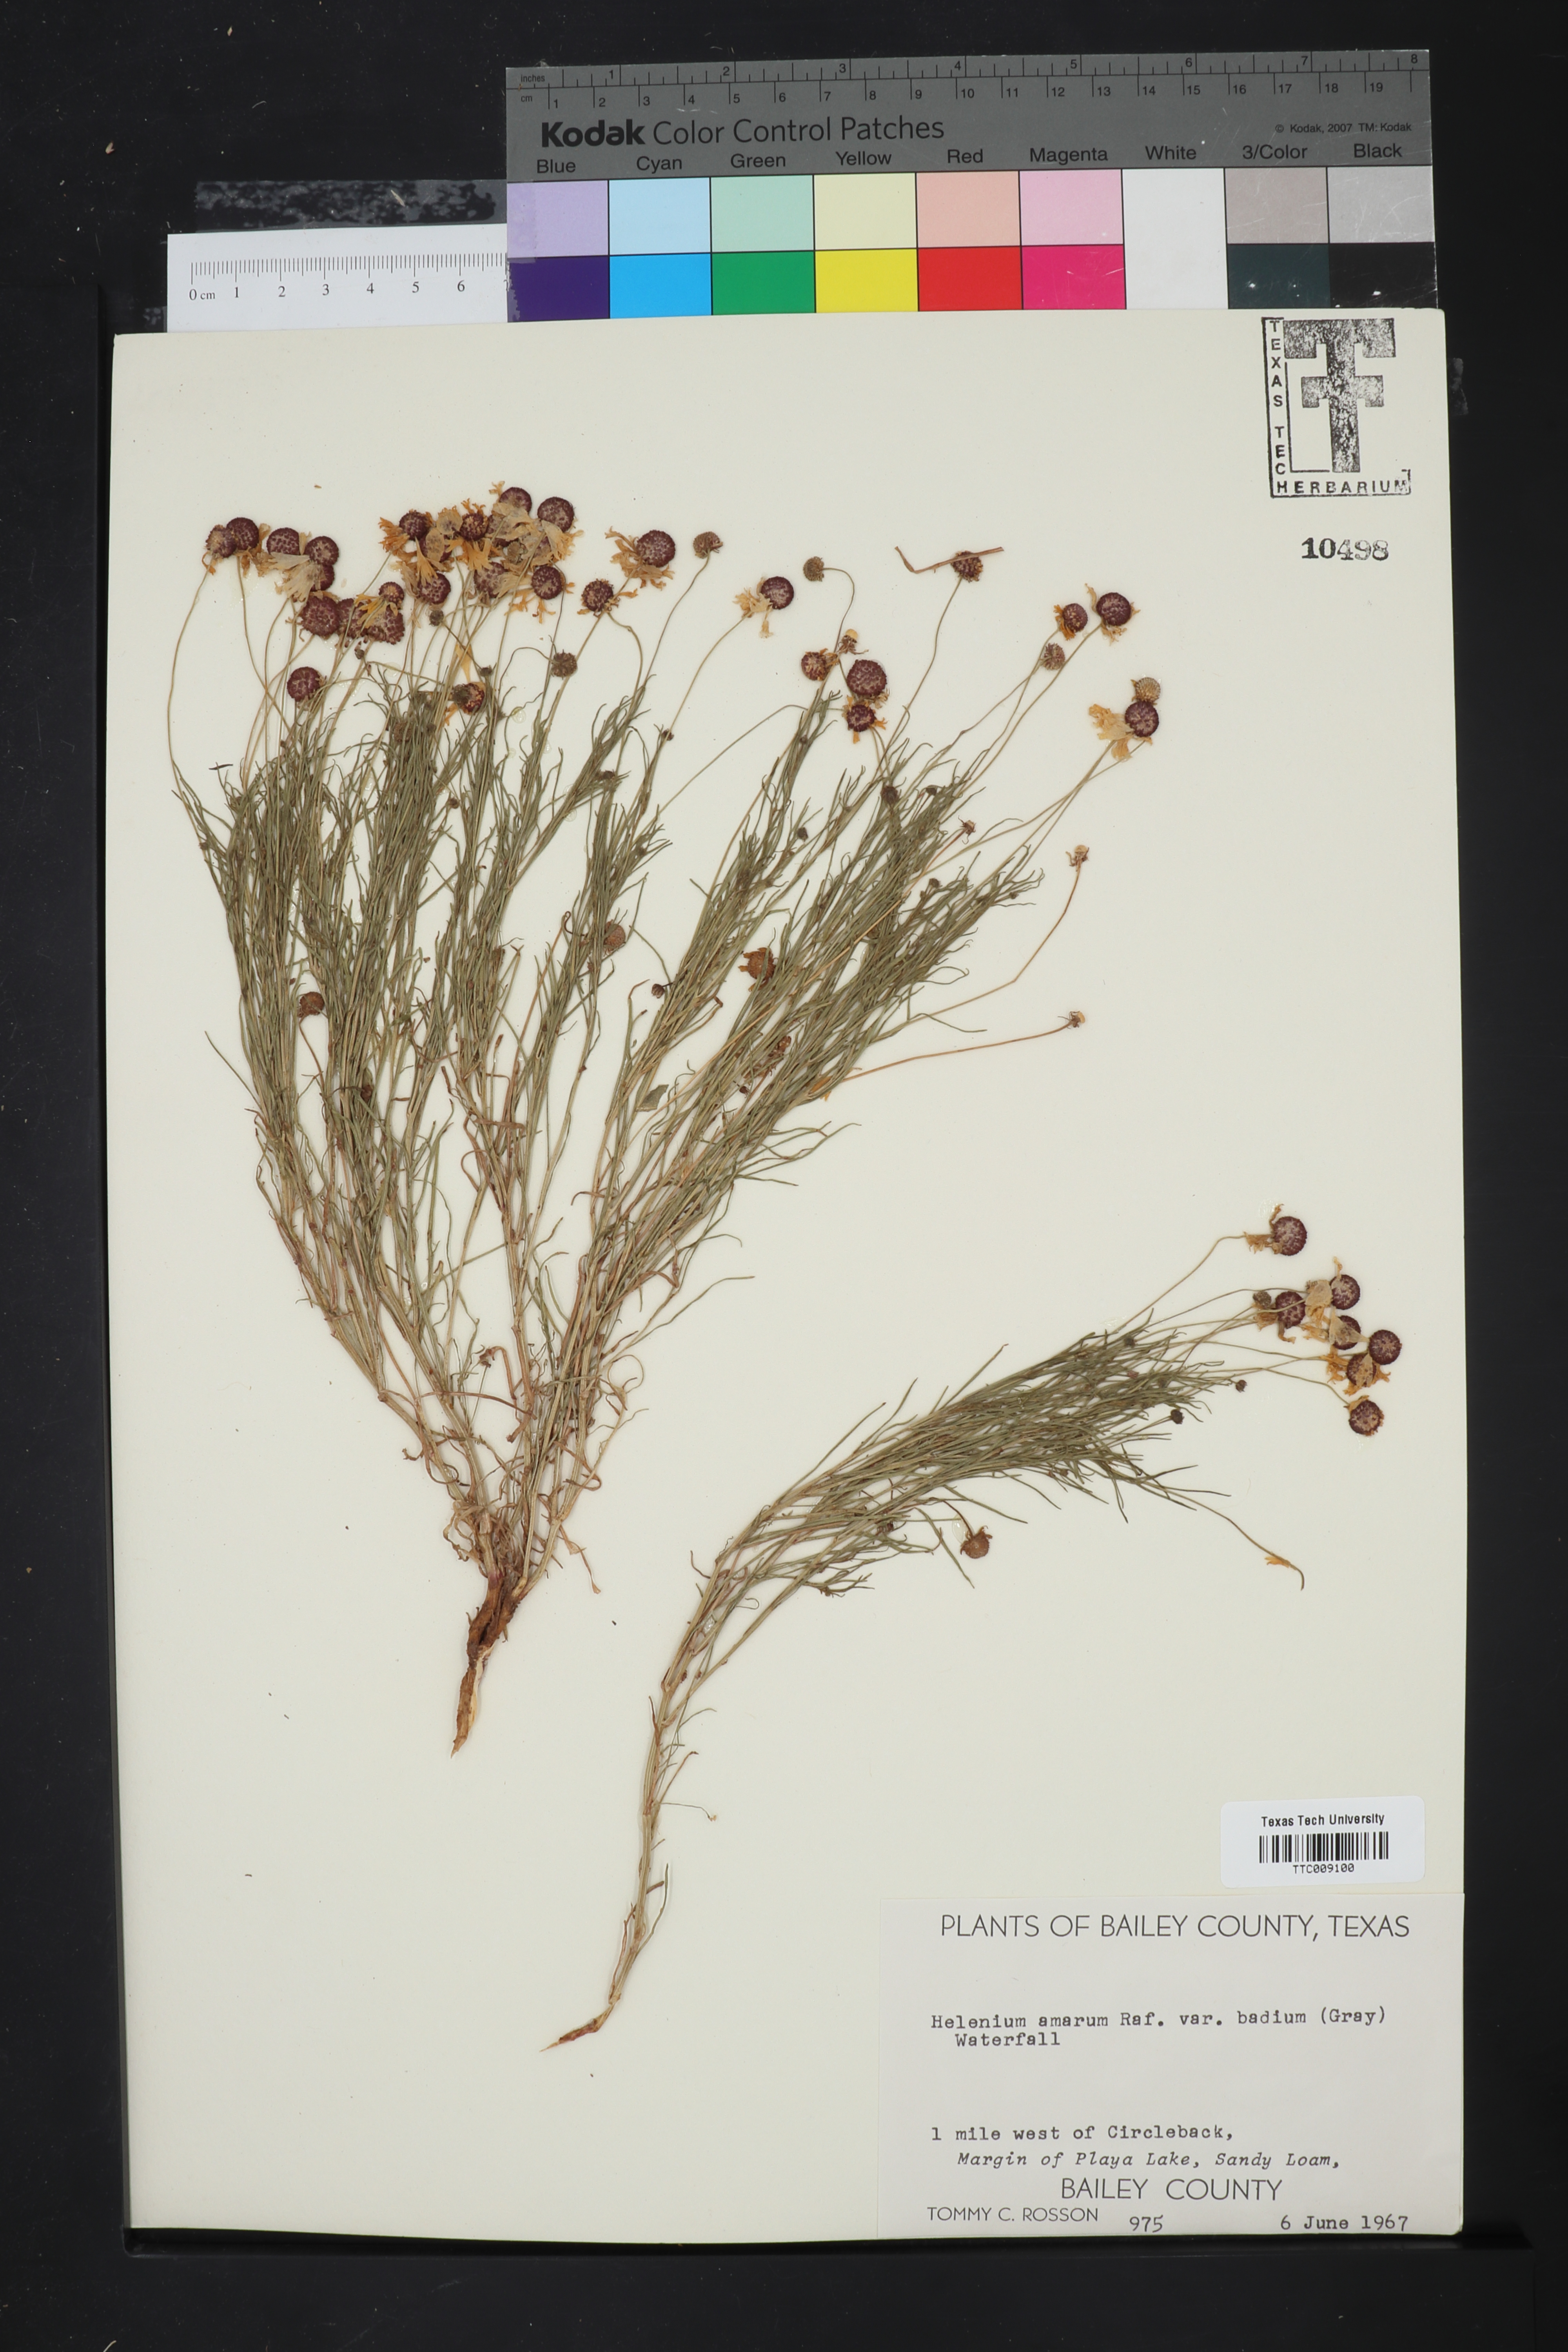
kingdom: Plantae
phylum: Tracheophyta
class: Magnoliopsida
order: Asterales
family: Asteraceae
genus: Helenium
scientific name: Helenium amarum
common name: Bitter sneezeweed
